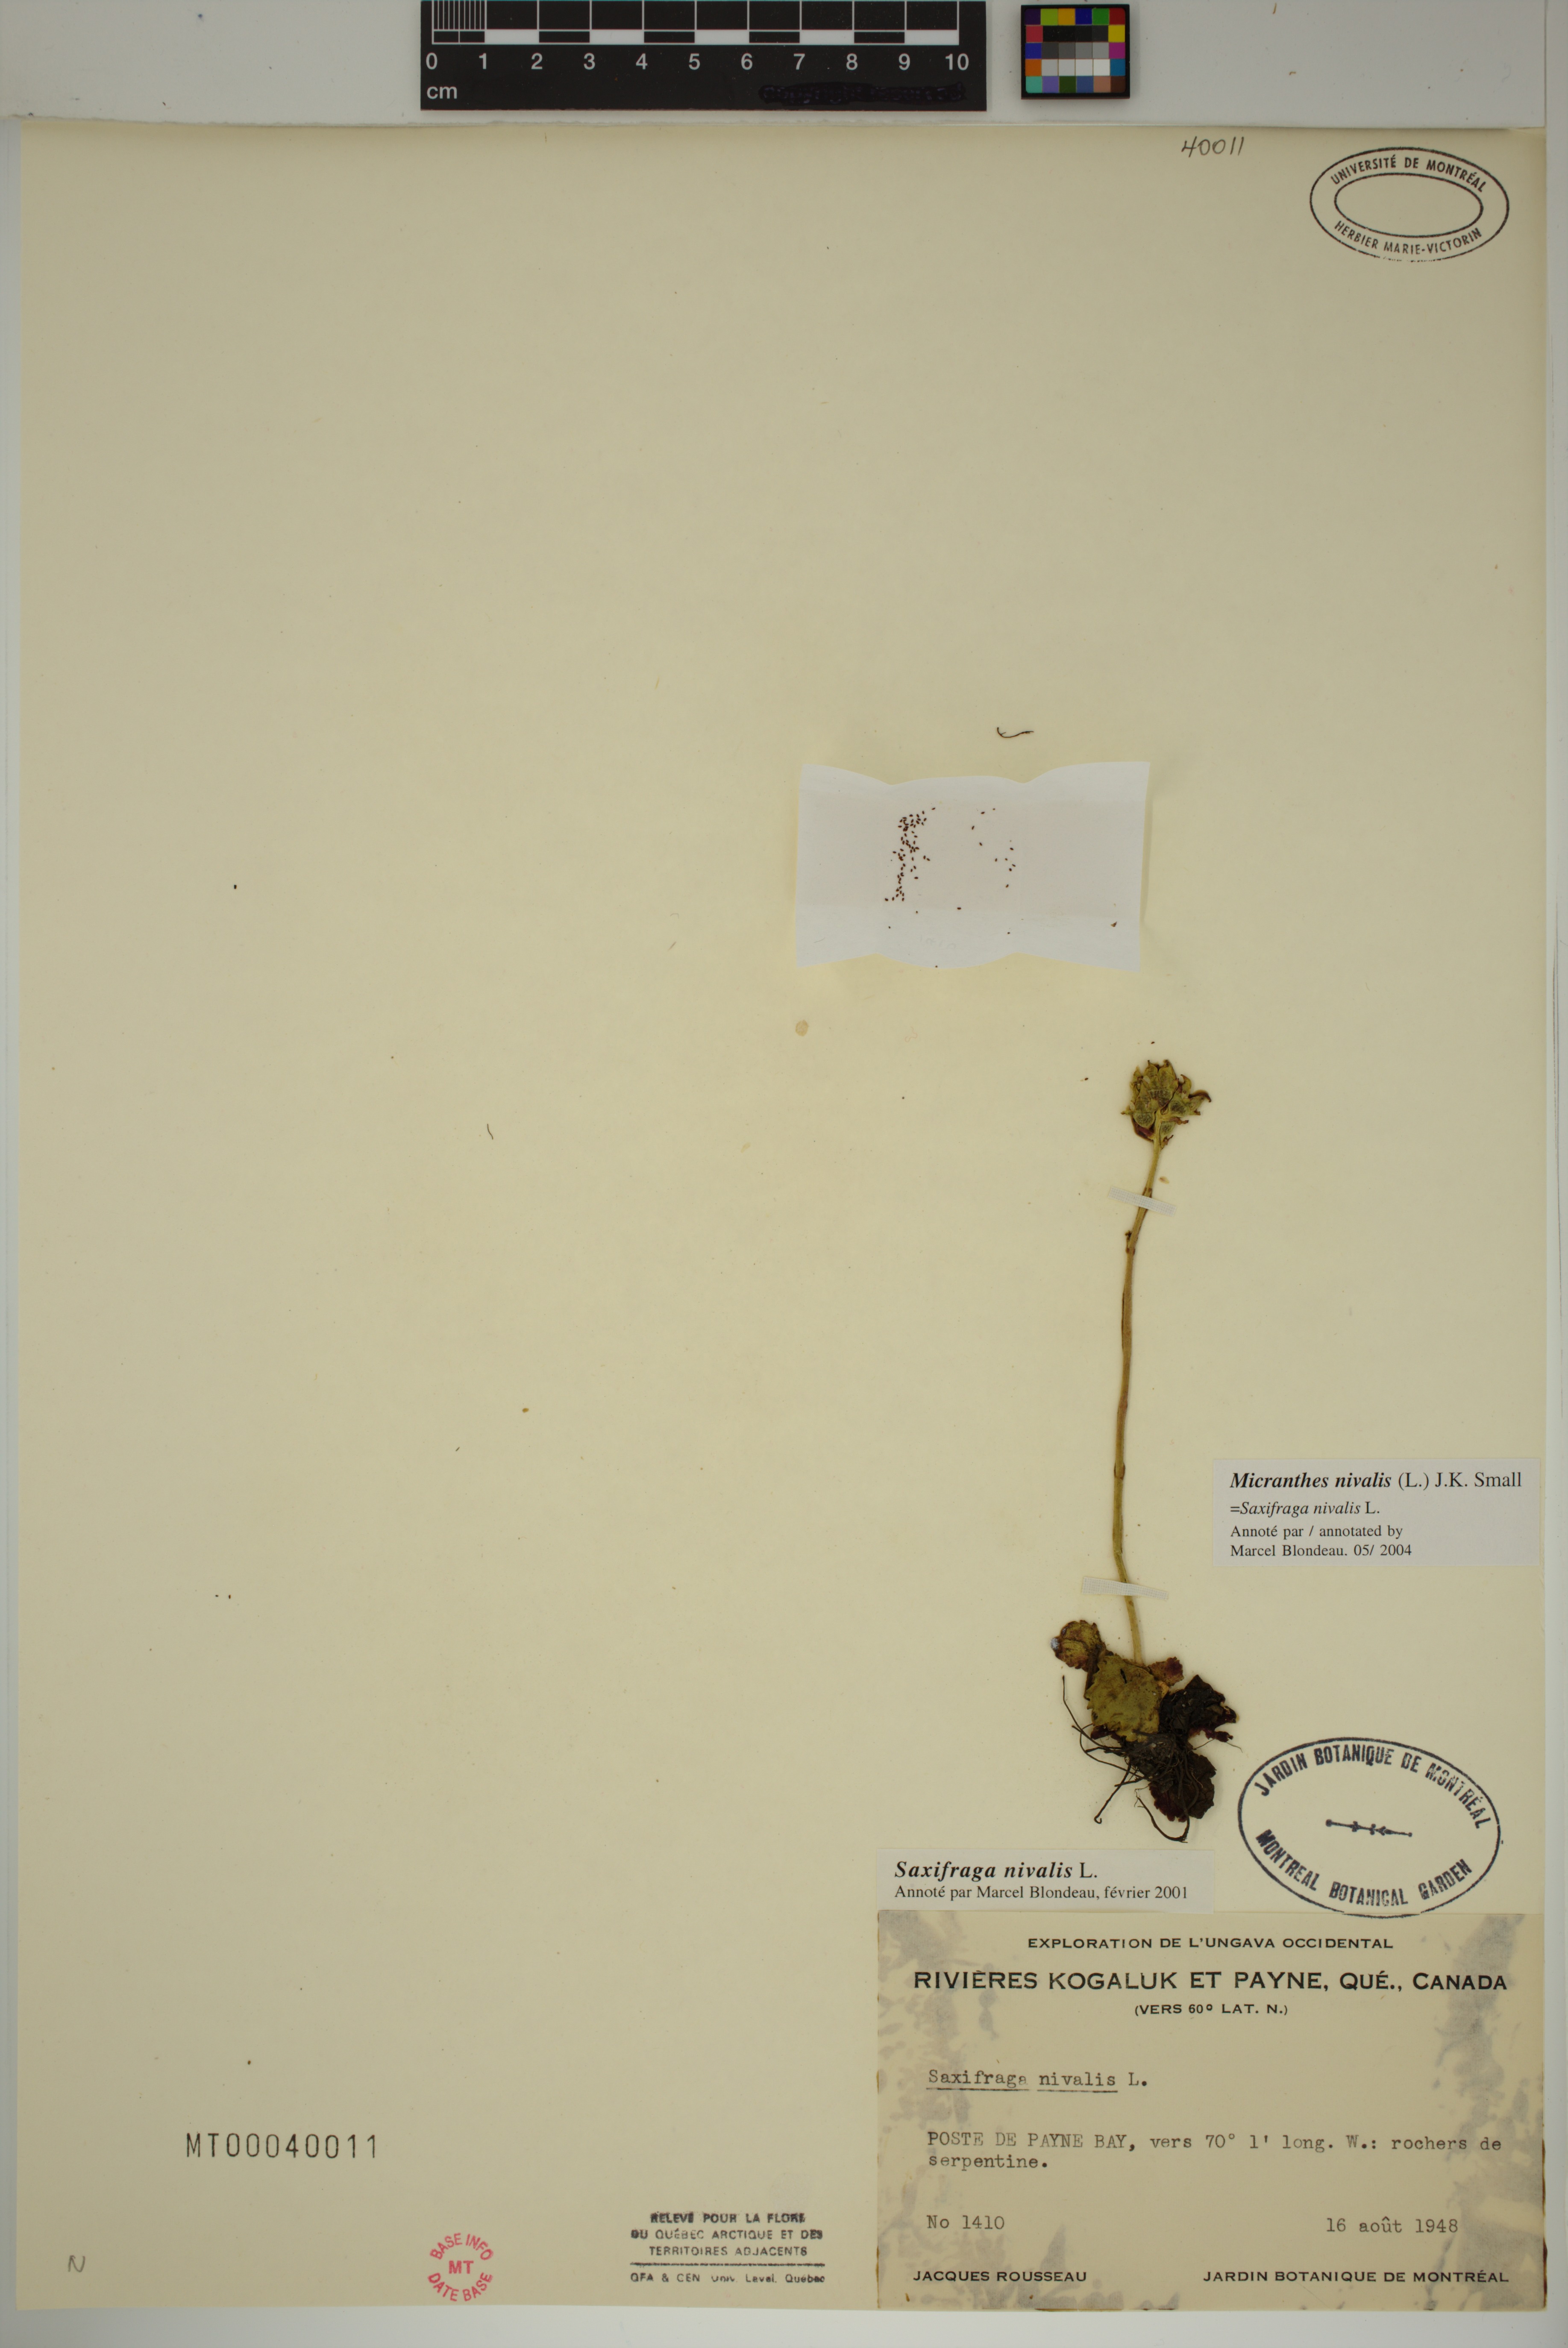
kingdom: Plantae
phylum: Tracheophyta
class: Magnoliopsida
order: Saxifragales
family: Saxifragaceae
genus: Micranthes
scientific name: Micranthes nivalis
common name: Alpine saxifrage
